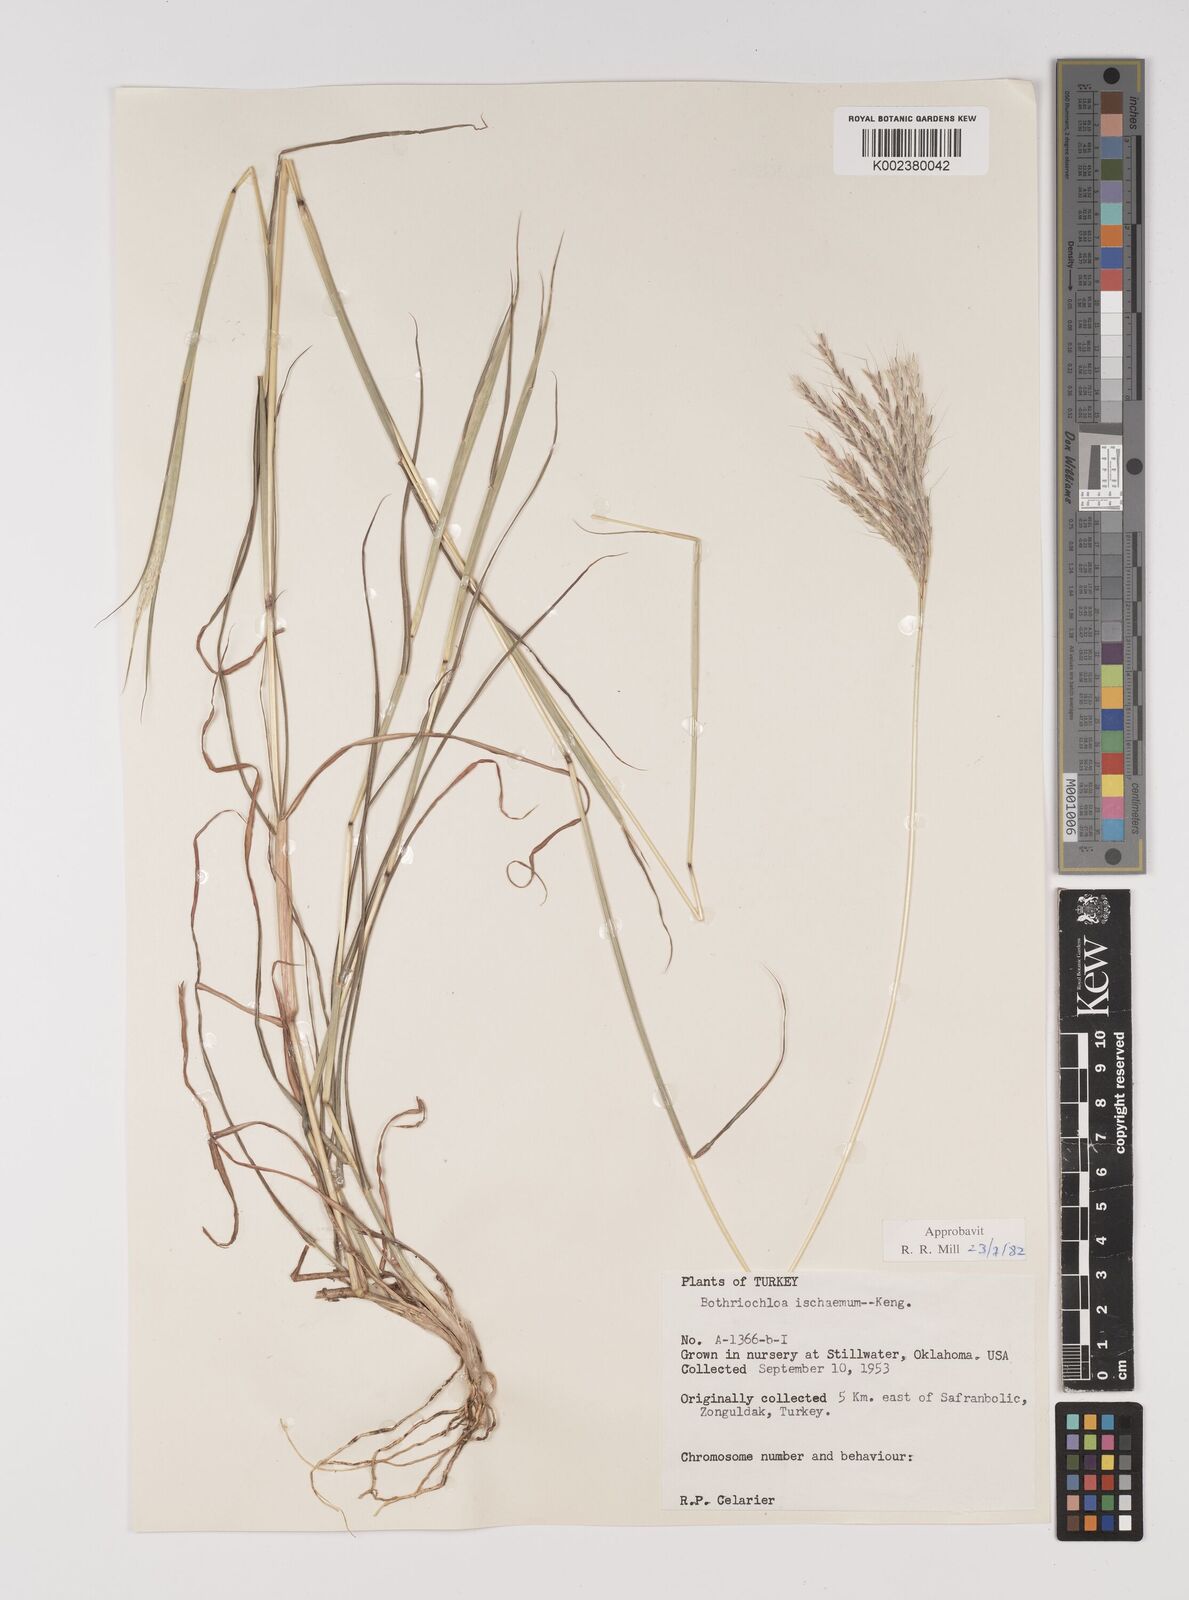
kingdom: Plantae
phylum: Tracheophyta
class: Liliopsida
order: Poales
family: Poaceae
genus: Bothriochloa
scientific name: Bothriochloa ischaemum
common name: Yellow bluestem
